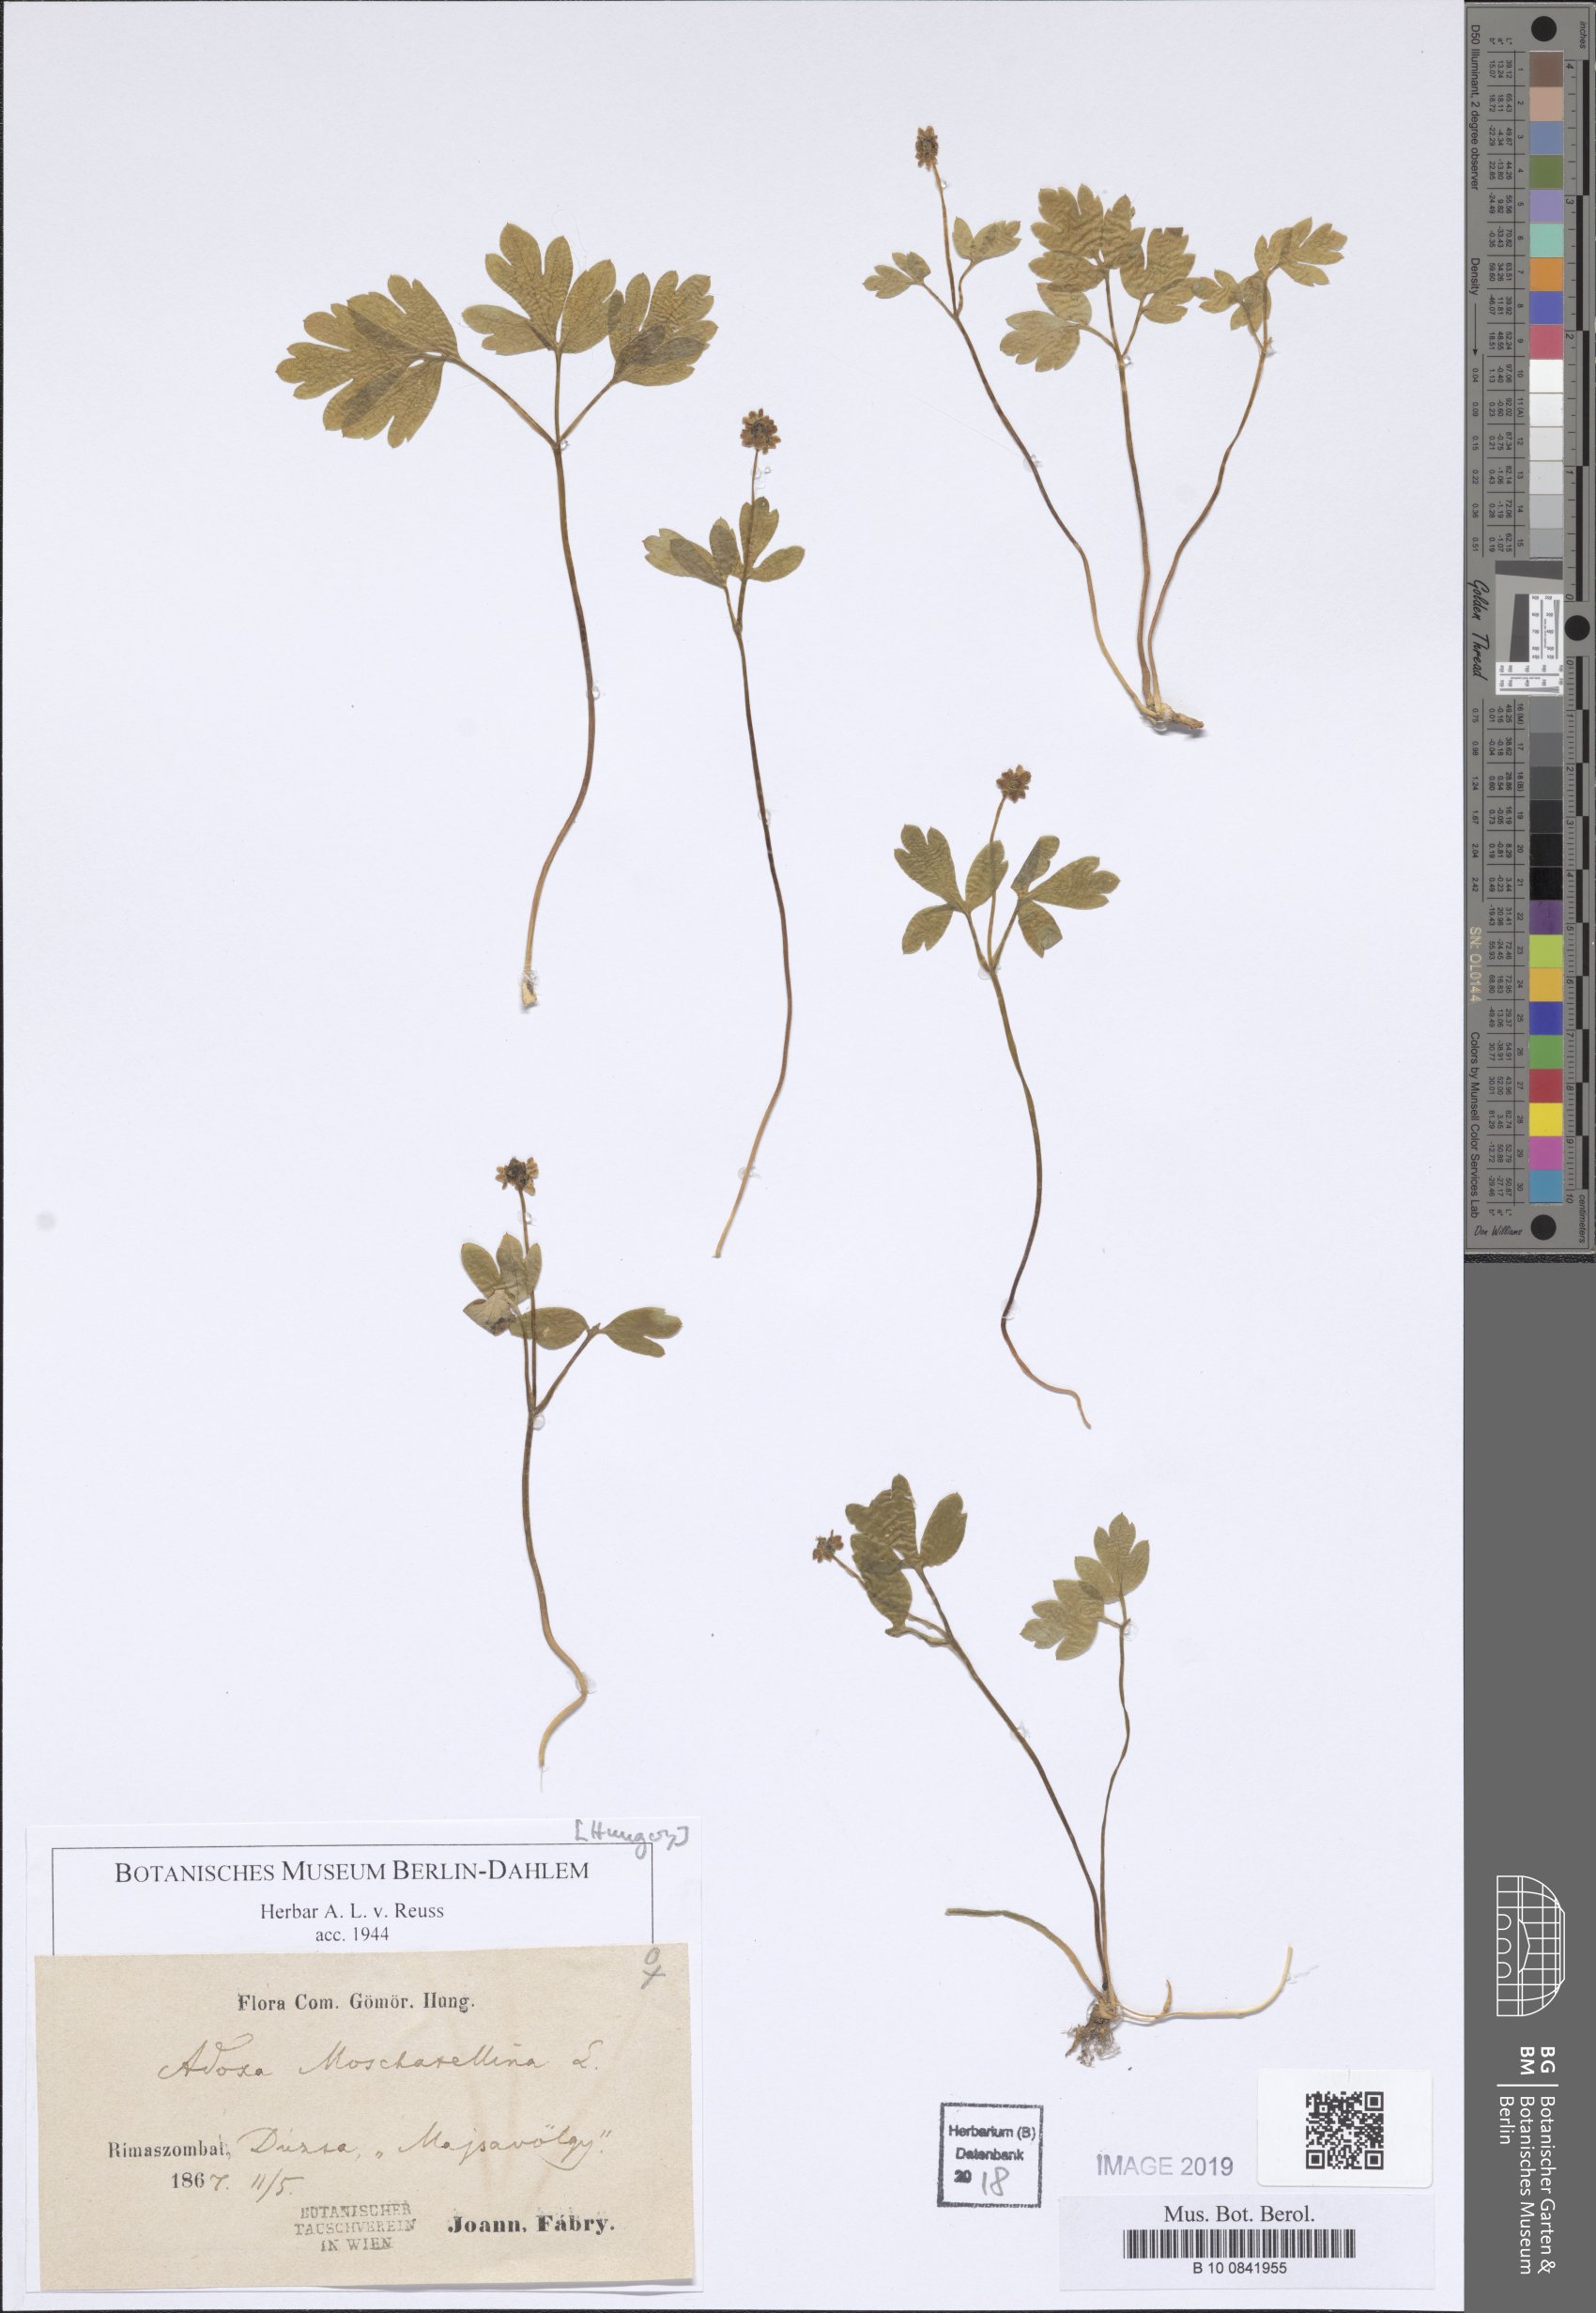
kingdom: Plantae
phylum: Tracheophyta
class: Magnoliopsida
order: Dipsacales
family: Viburnaceae
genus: Adoxa
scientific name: Adoxa moschatellina
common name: Moschatel
